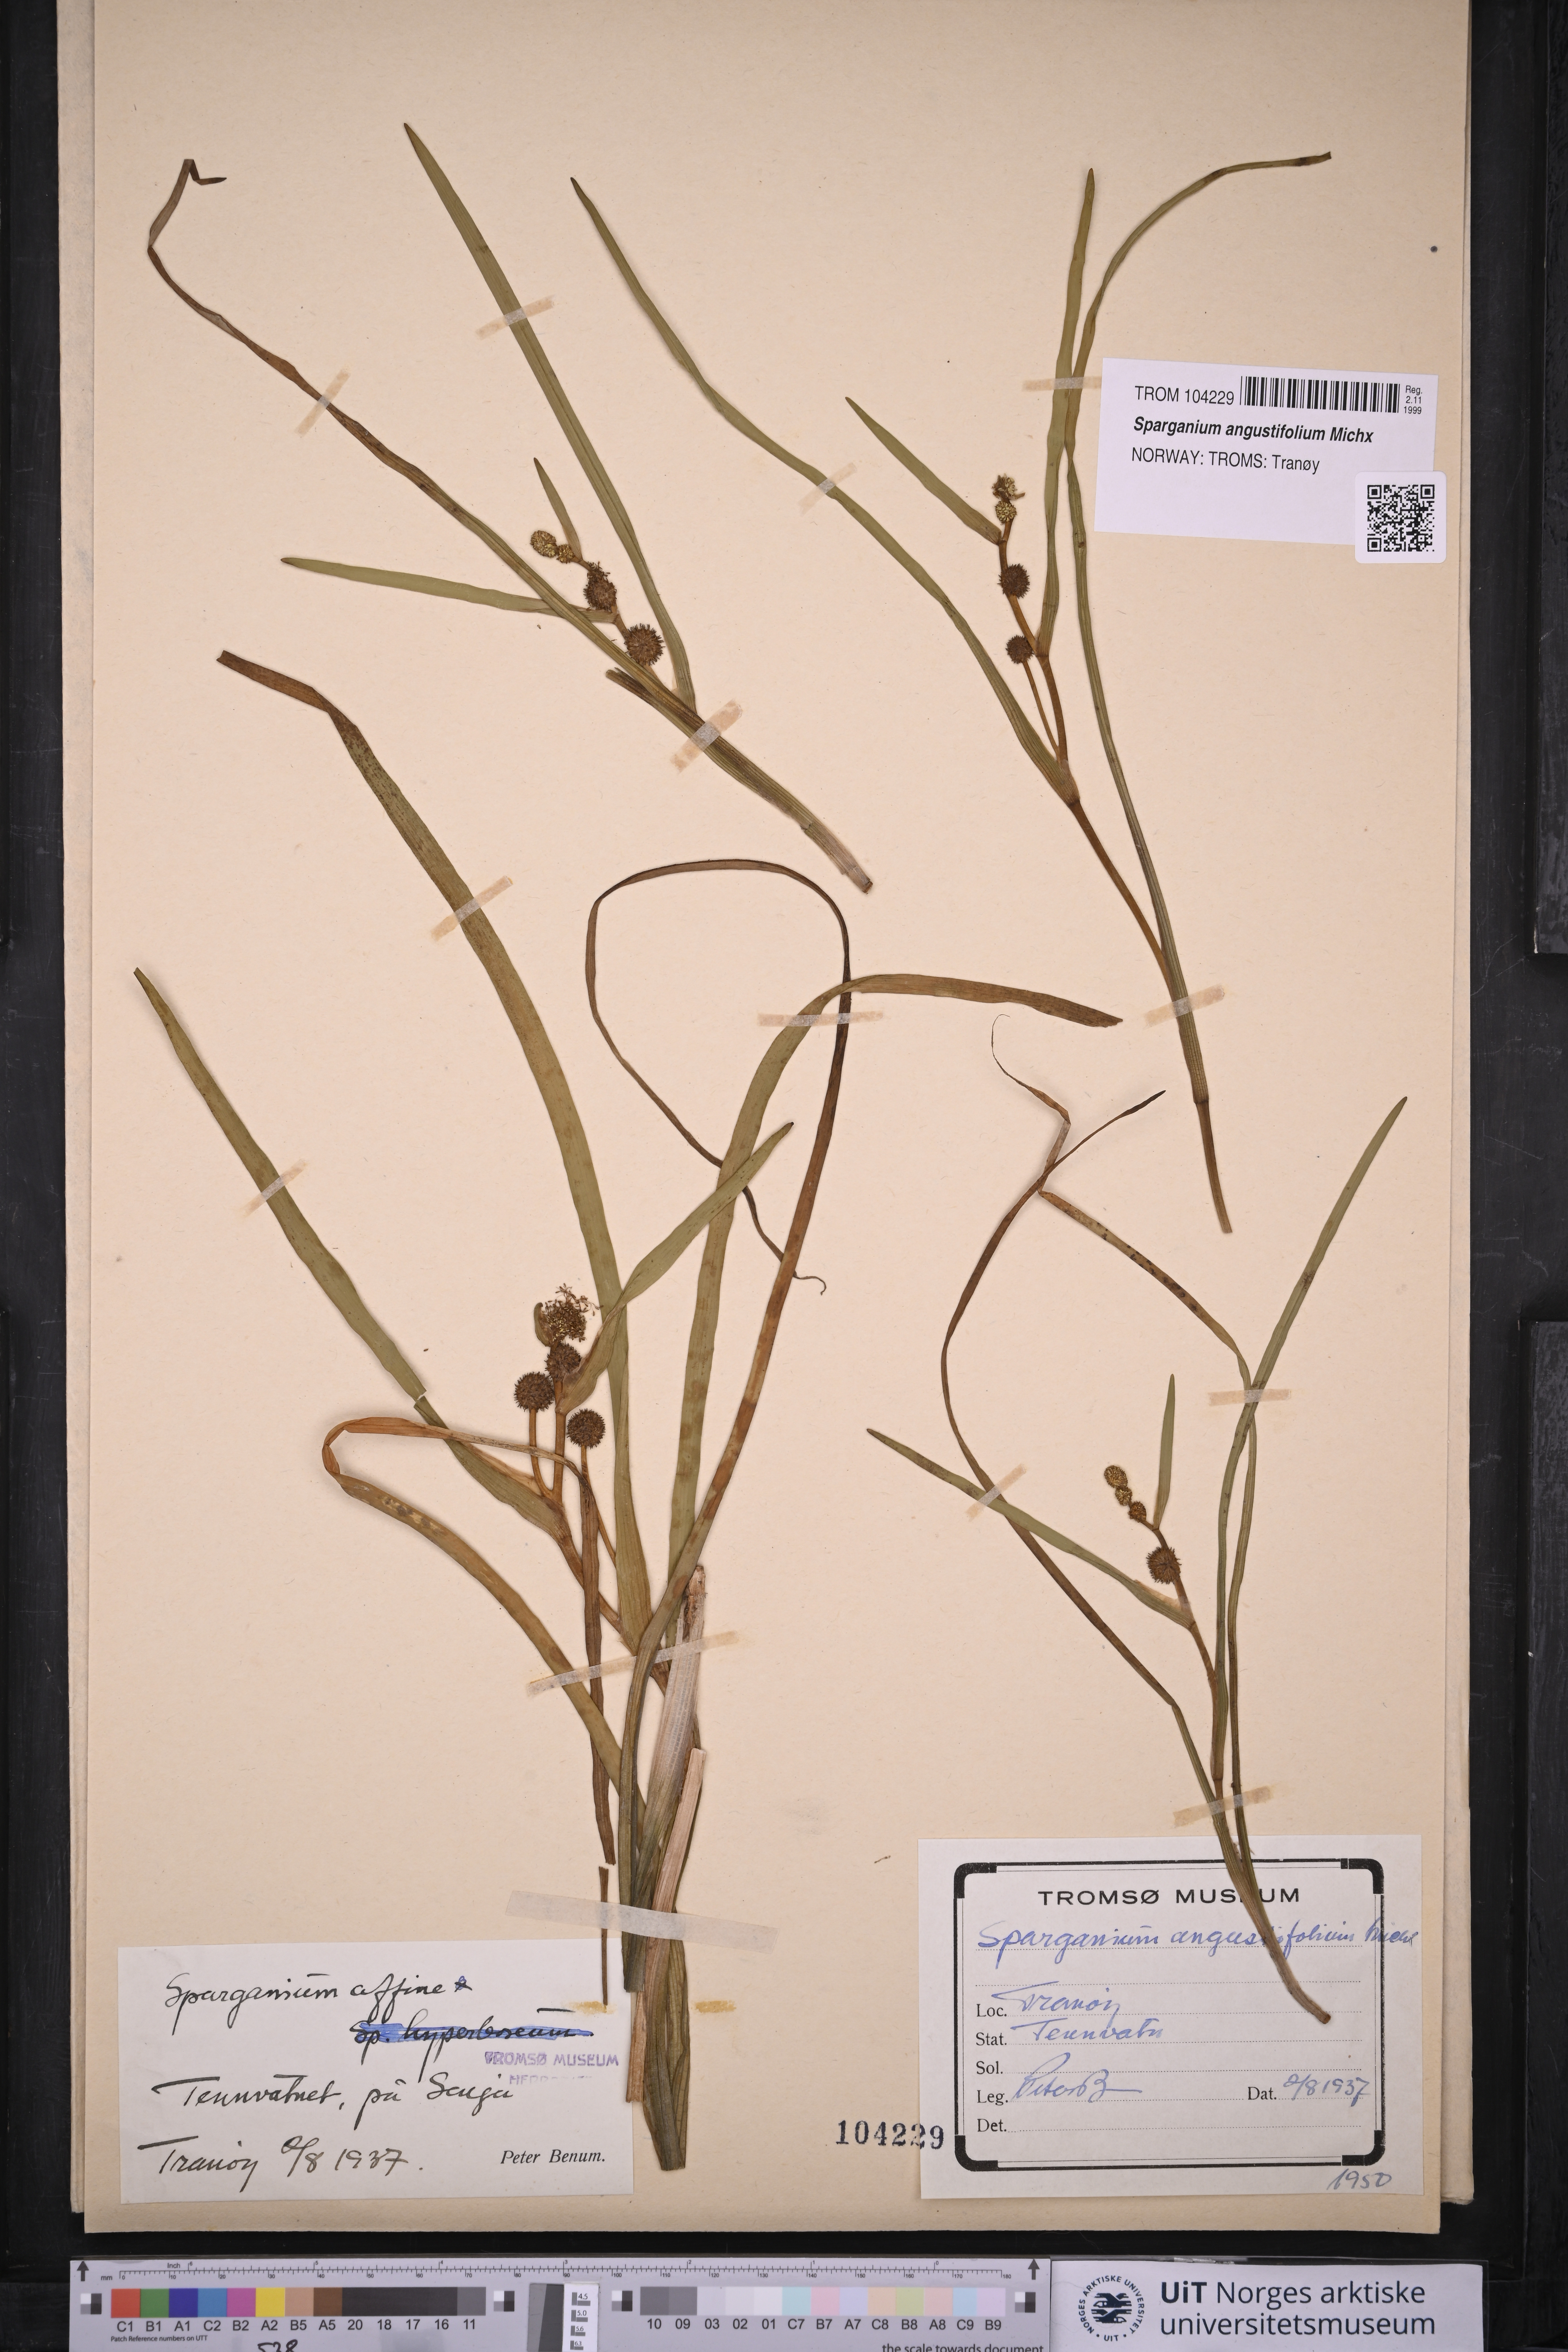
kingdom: Plantae
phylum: Tracheophyta
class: Liliopsida
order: Poales
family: Typhaceae
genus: Sparganium
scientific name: Sparganium angustifolium
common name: Floating bur-reed
